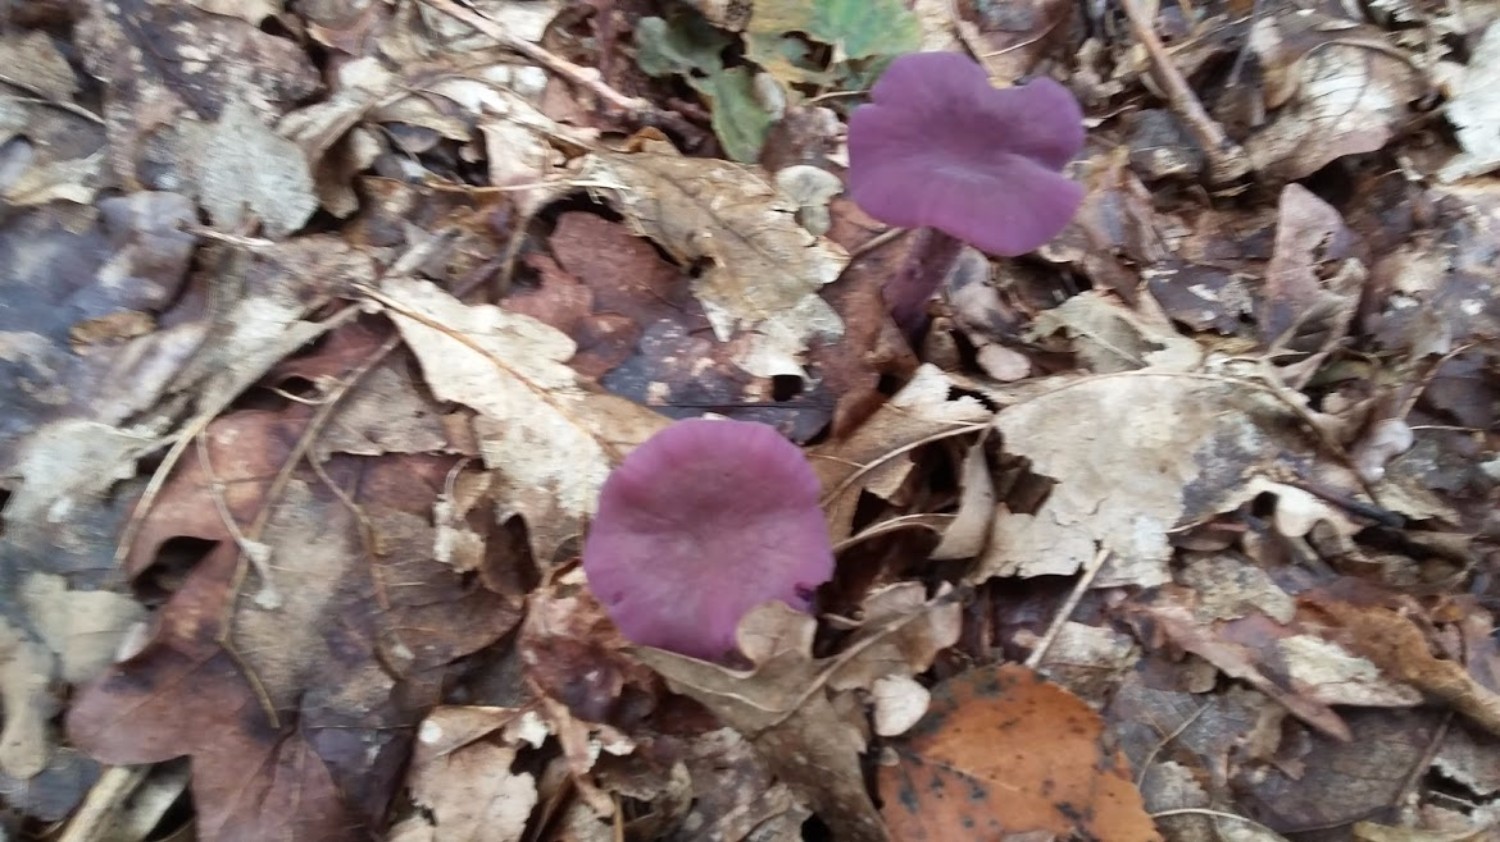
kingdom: Fungi
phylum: Basidiomycota
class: Agaricomycetes
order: Agaricales
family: Hydnangiaceae
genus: Laccaria
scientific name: Laccaria amethystina
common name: violet ametysthat
